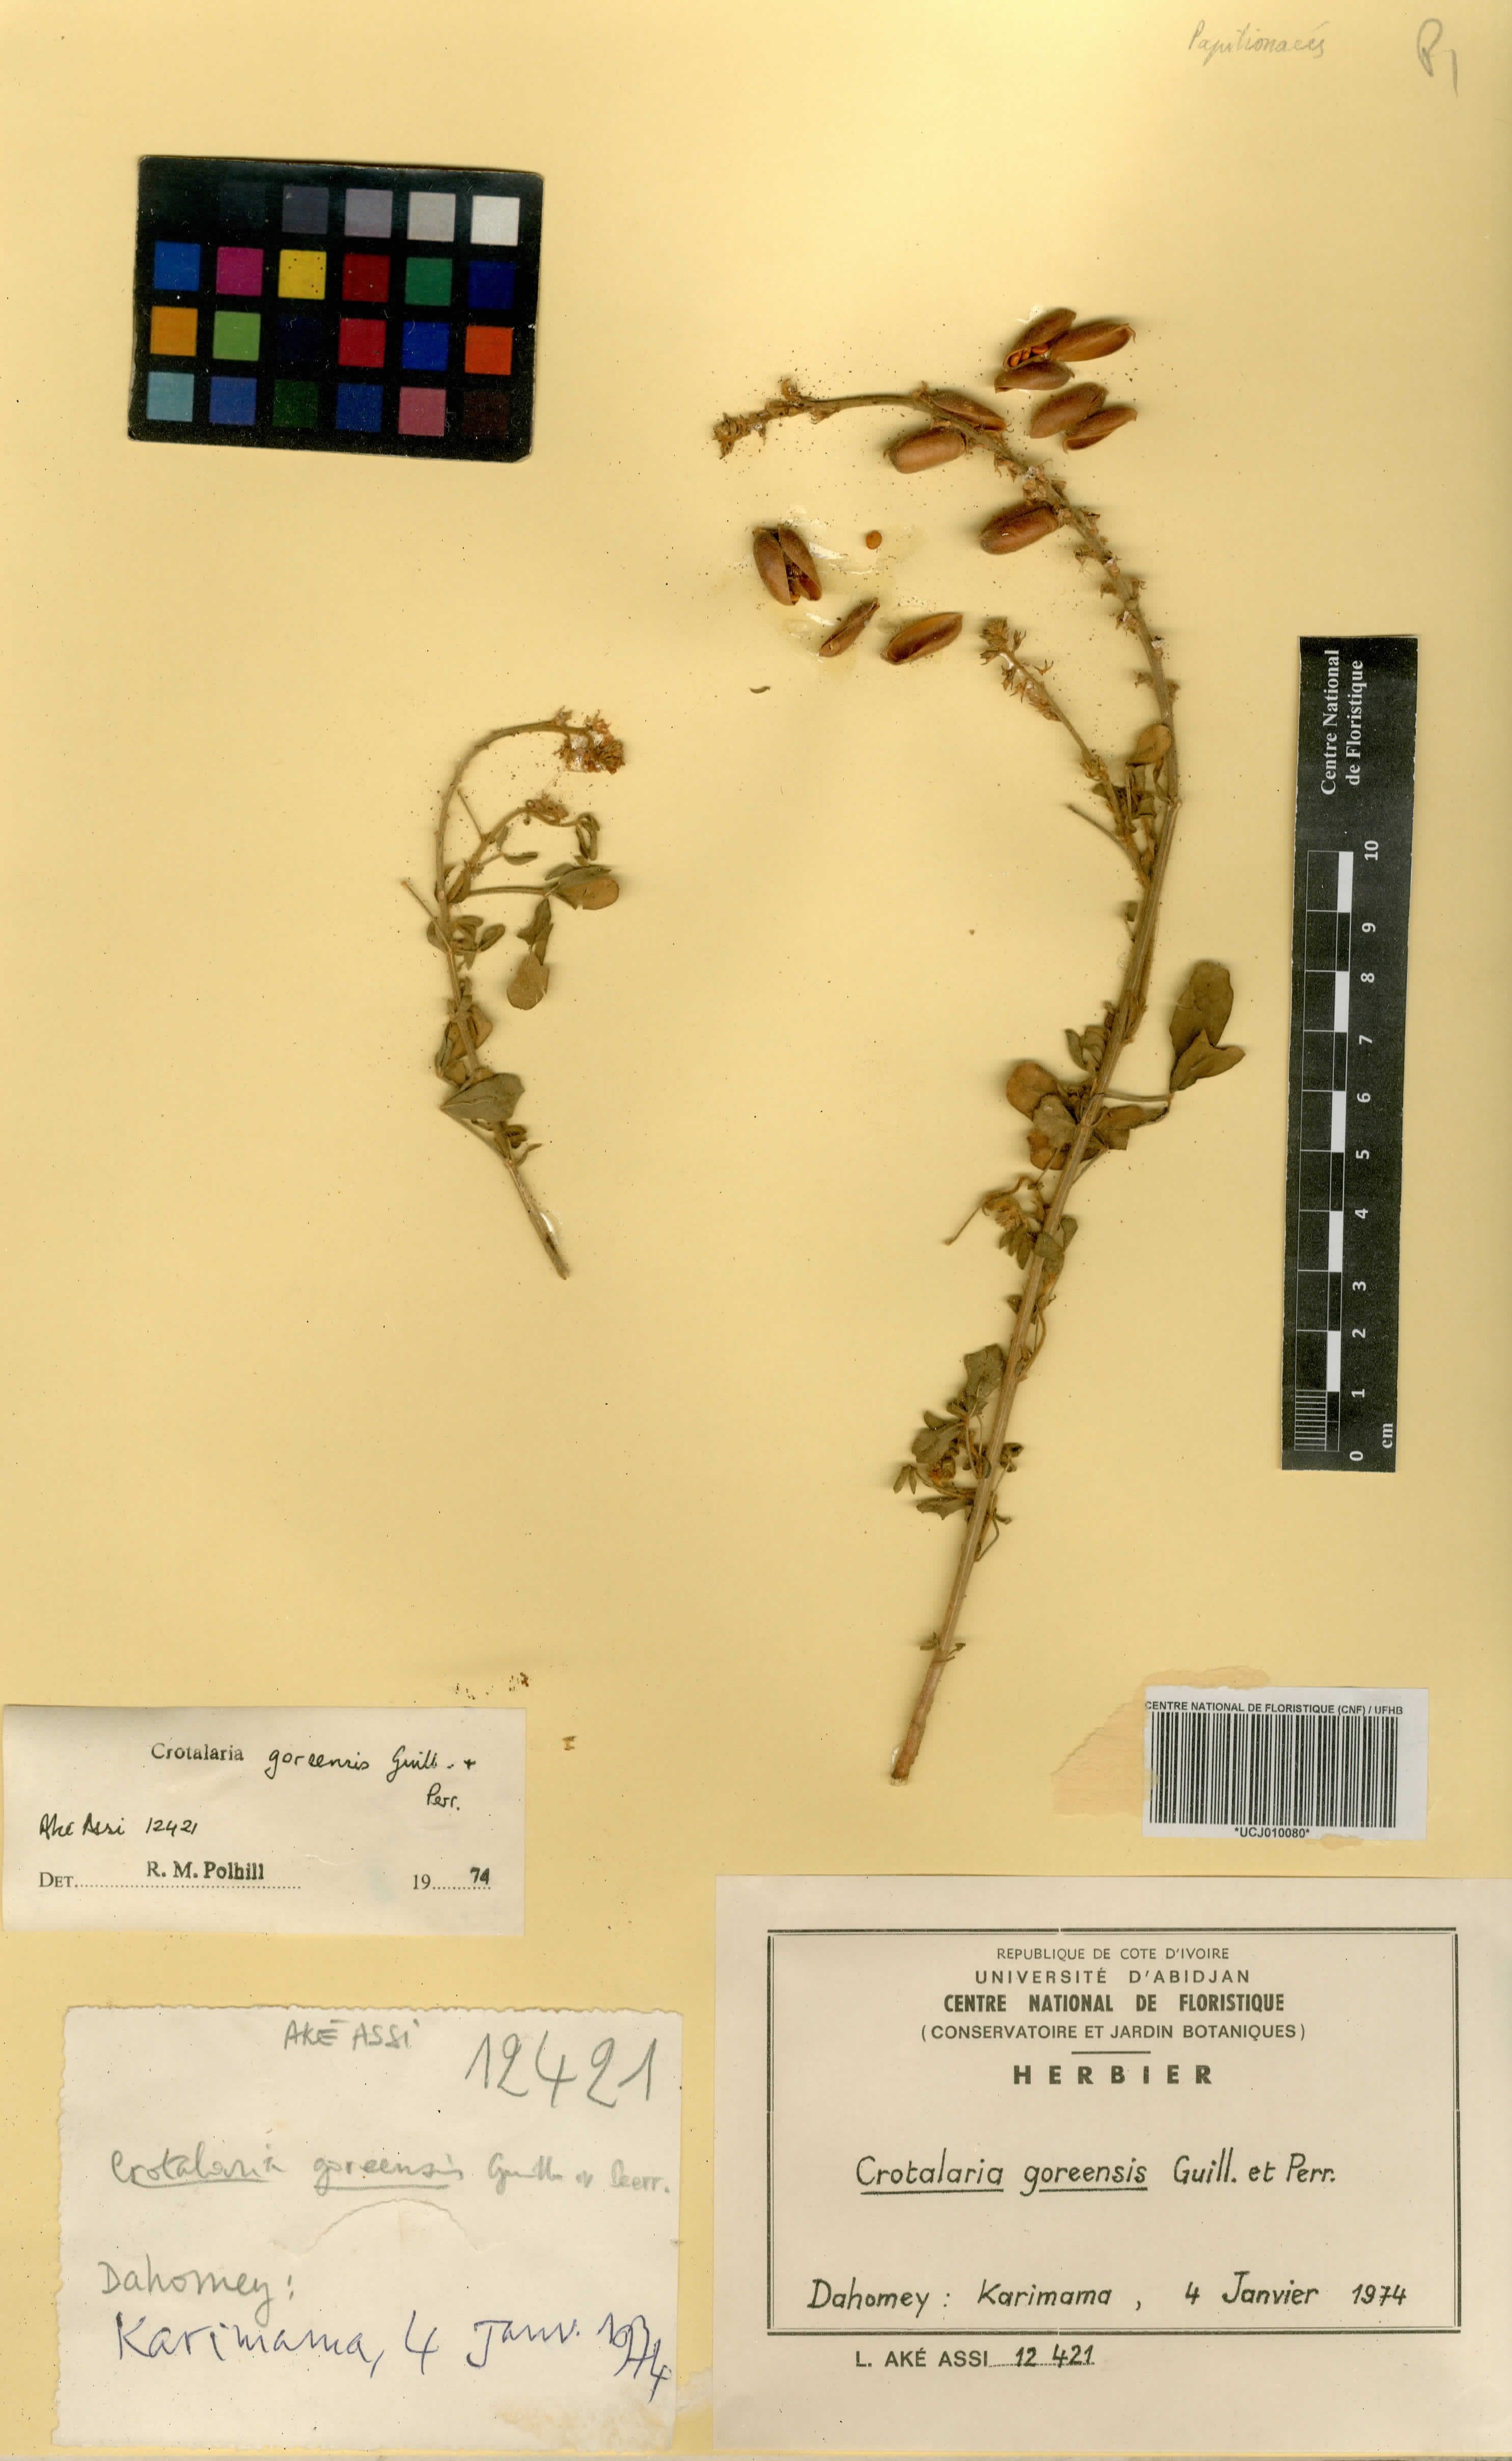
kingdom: Plantae
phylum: Tracheophyta
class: Magnoliopsida
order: Fabales
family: Fabaceae
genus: Crotalaria
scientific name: Crotalaria goreensis
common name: Gambia-pea
